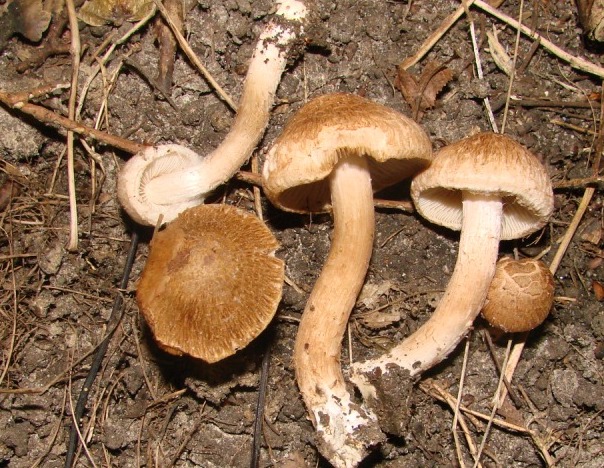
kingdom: Fungi
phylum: Basidiomycota
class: Agaricomycetes
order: Agaricales
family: Inocybaceae
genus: Inosperma
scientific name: Inosperma bongardii
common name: Bongards trævlhat
